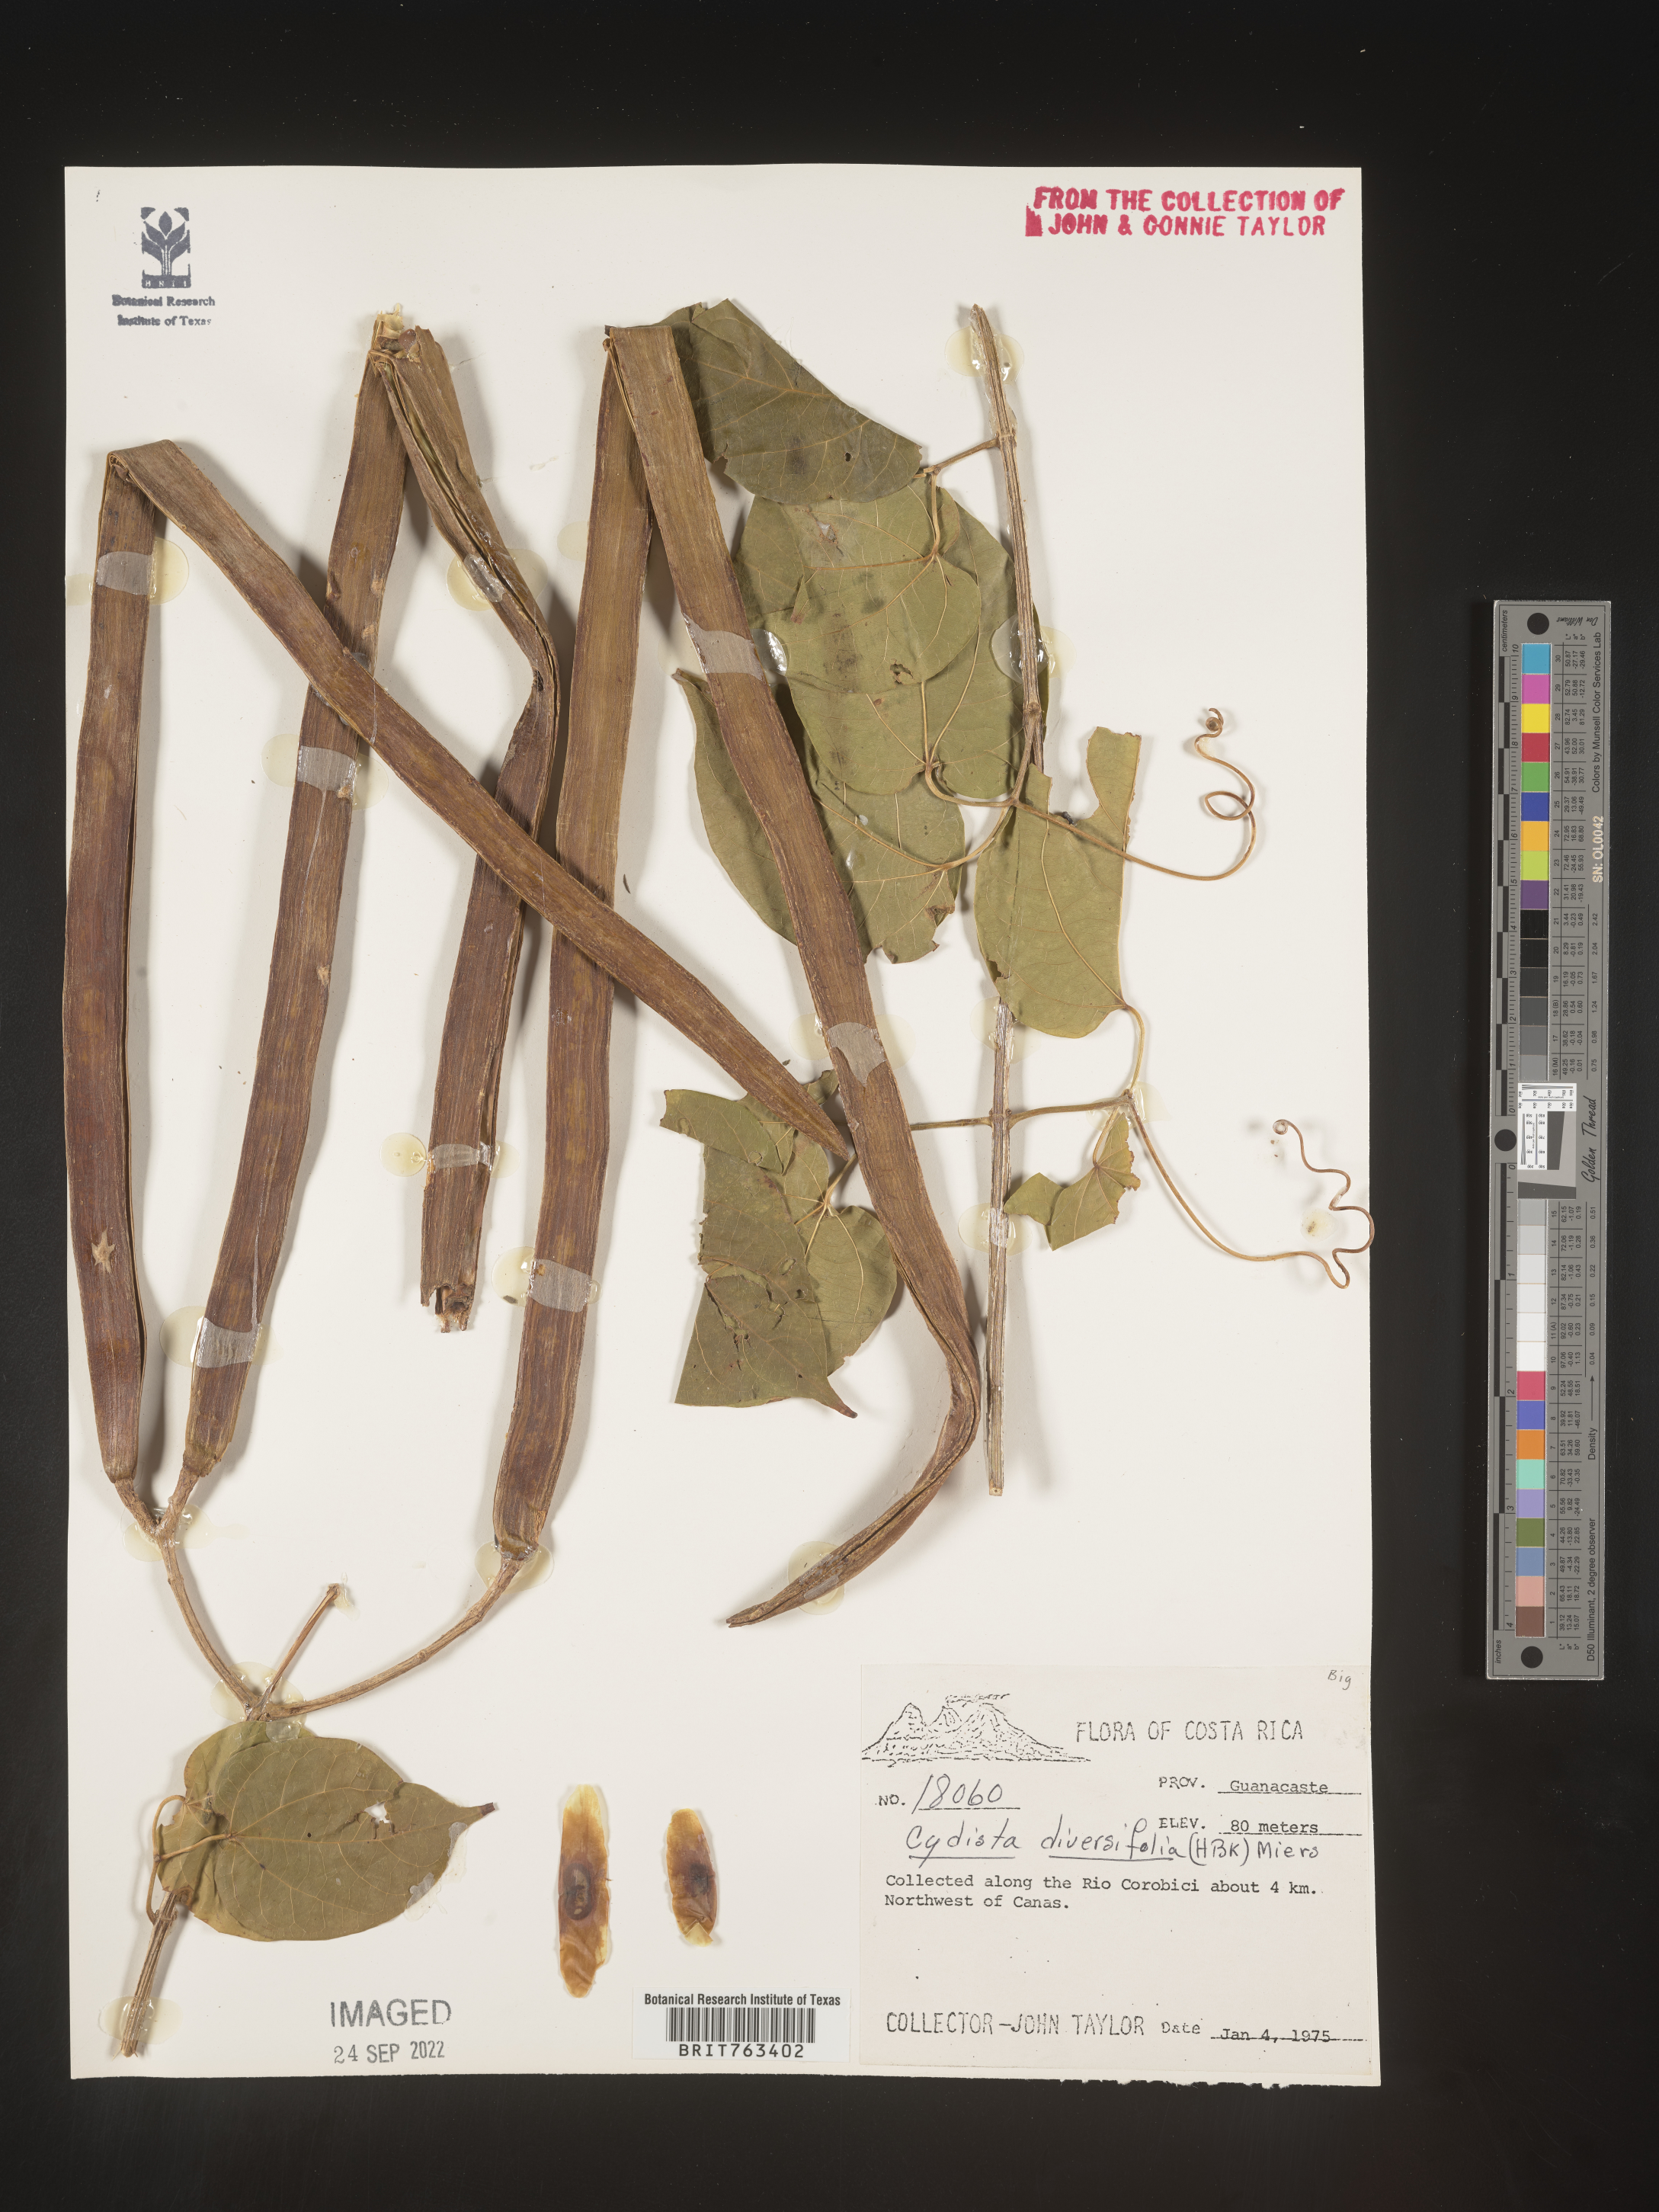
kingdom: Plantae
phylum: Tracheophyta
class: Magnoliopsida
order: Lamiales
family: Bignoniaceae
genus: Bignonia
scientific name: Bignonia
